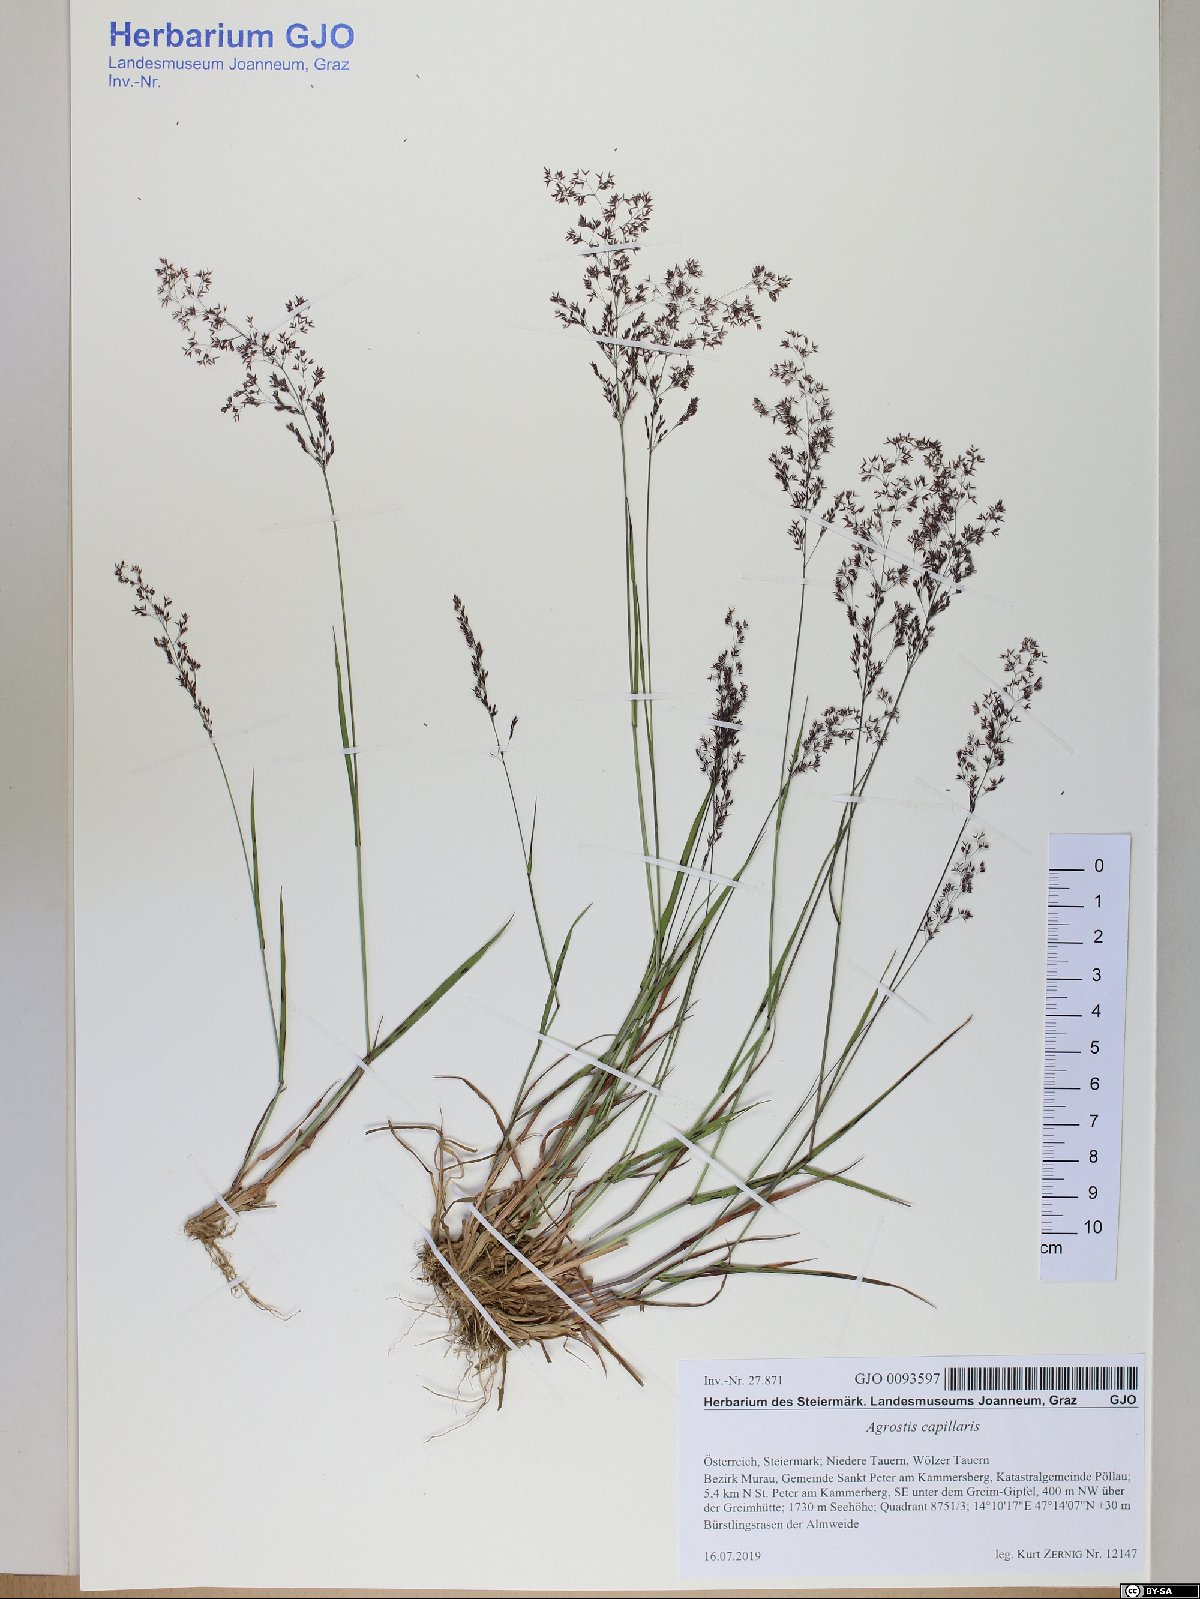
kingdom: Plantae
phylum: Tracheophyta
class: Liliopsida
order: Poales
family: Poaceae
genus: Agrostis
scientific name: Agrostis capillaris
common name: Colonial bentgrass
